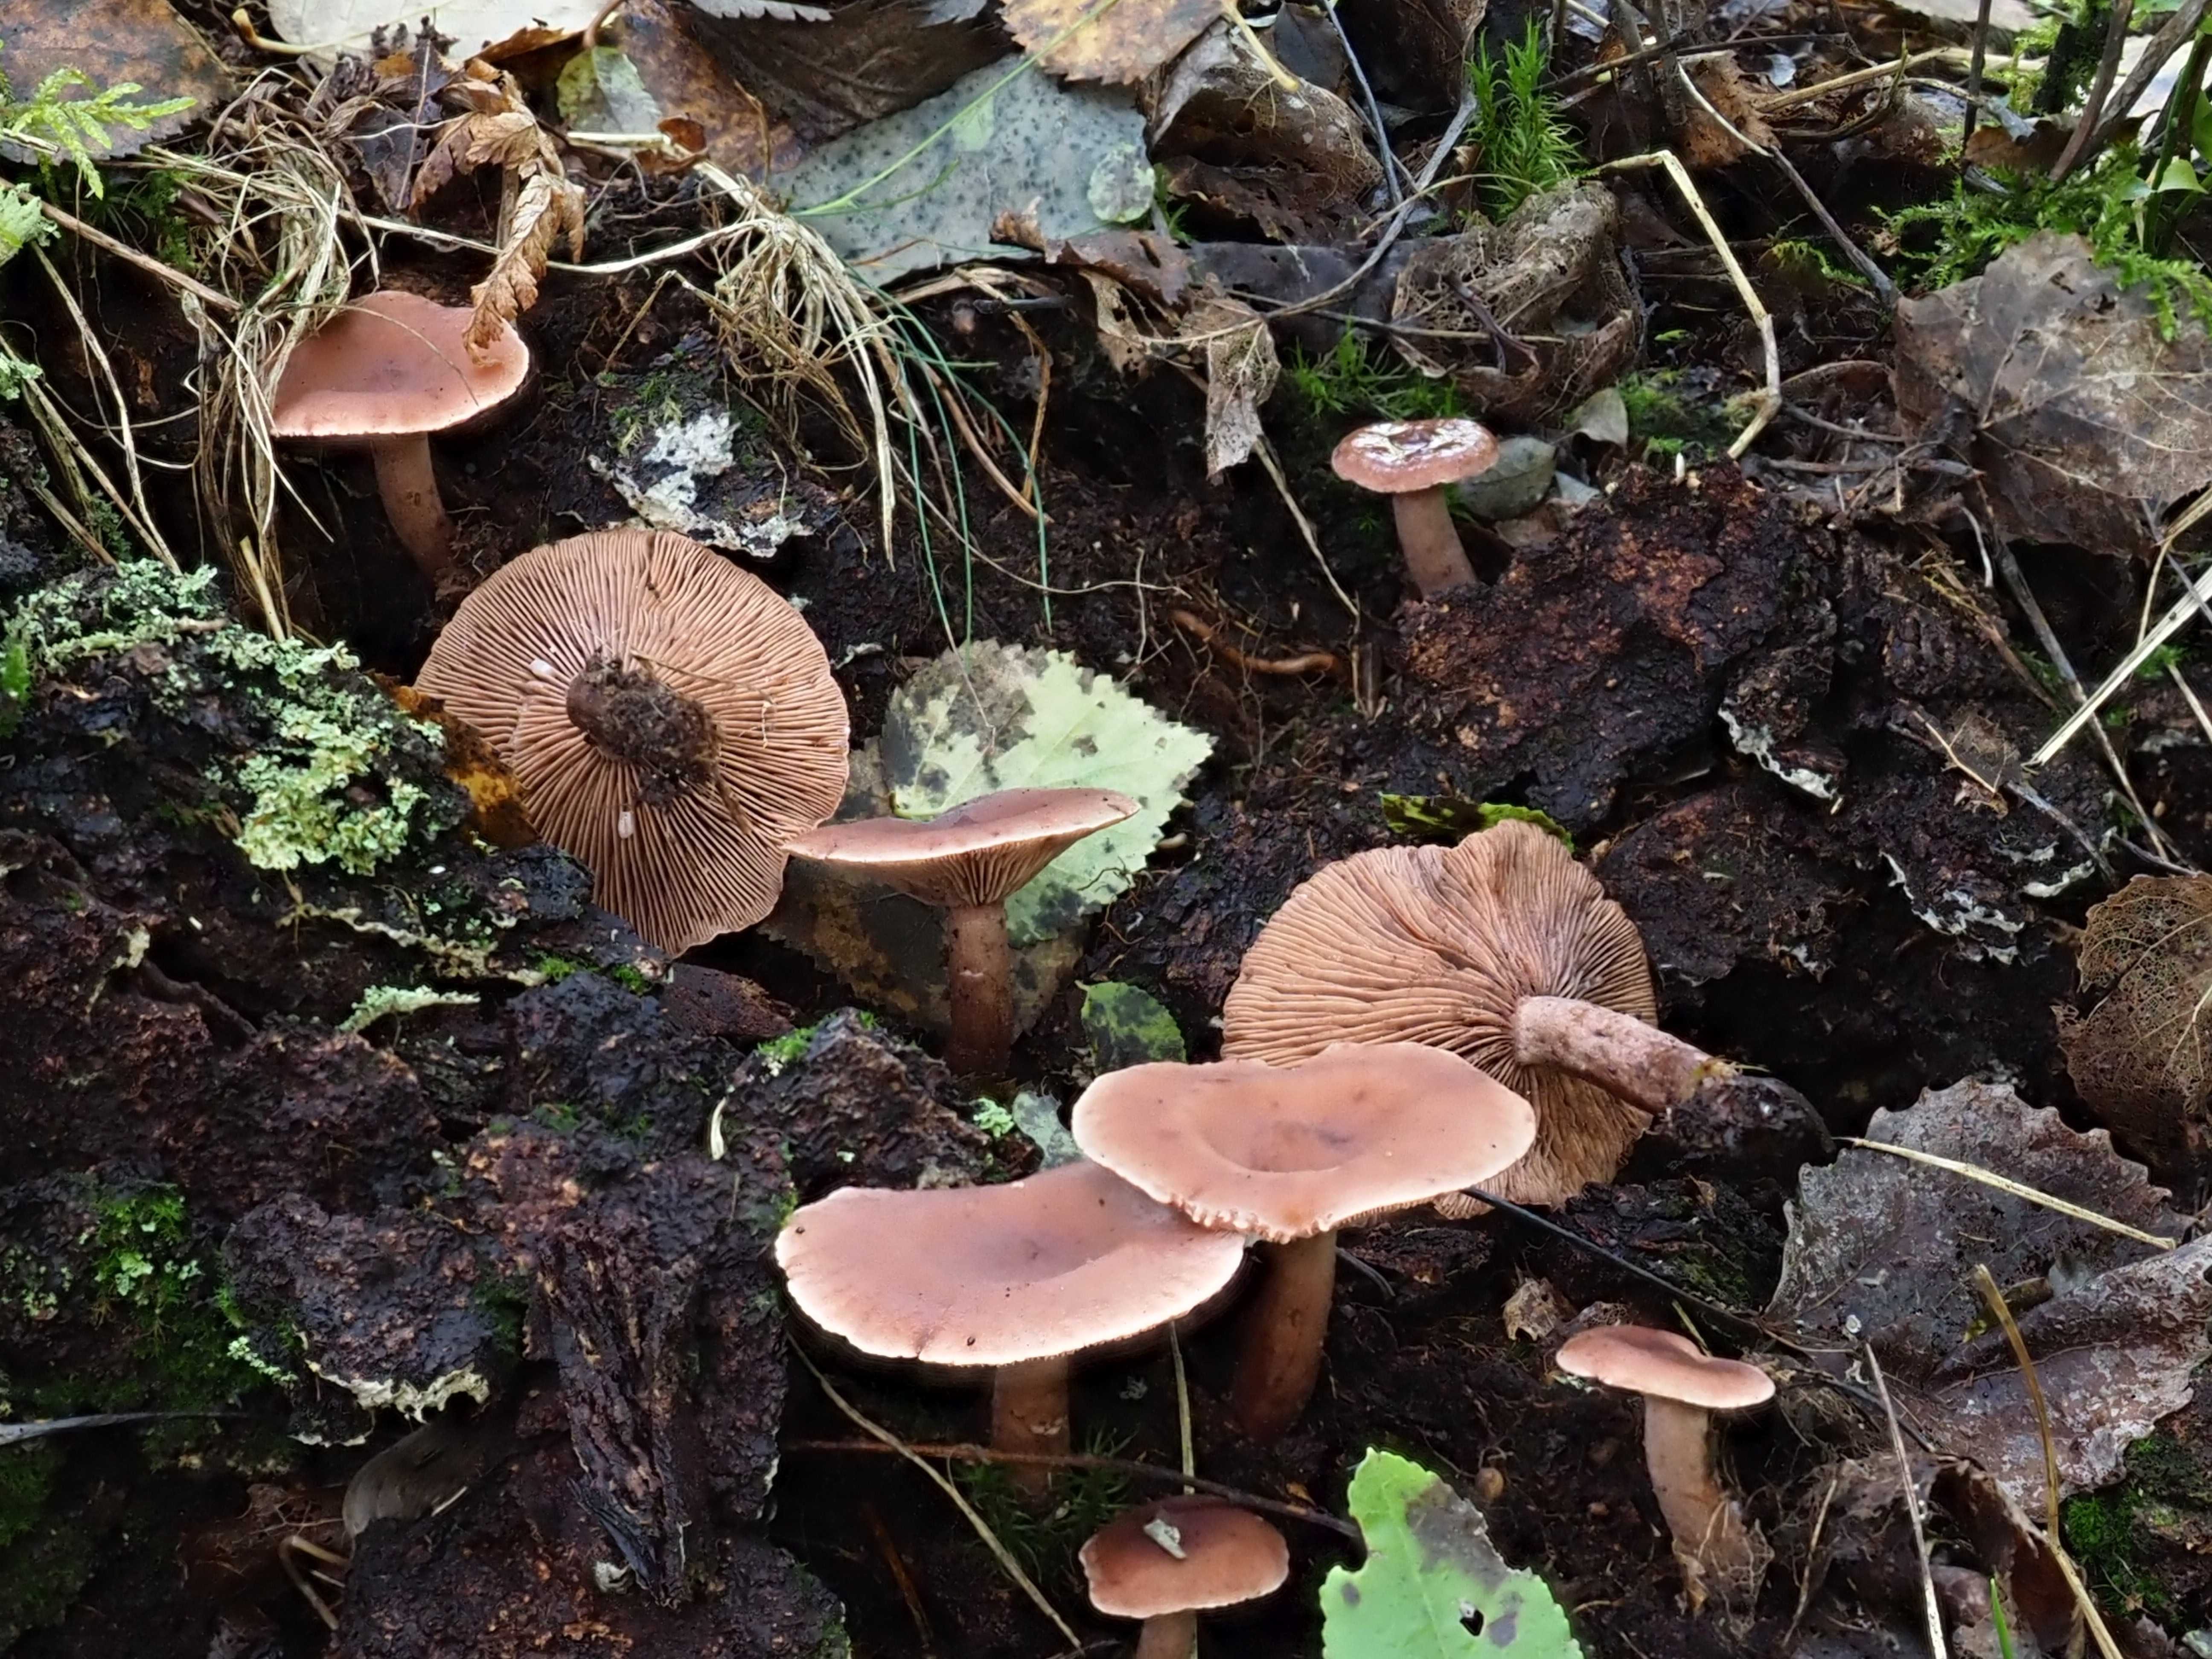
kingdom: Fungi
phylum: Basidiomycota
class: Agaricomycetes
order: Russulales
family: Russulaceae
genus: Lactarius
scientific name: Lactarius camphoratus
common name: Curry milkcap
